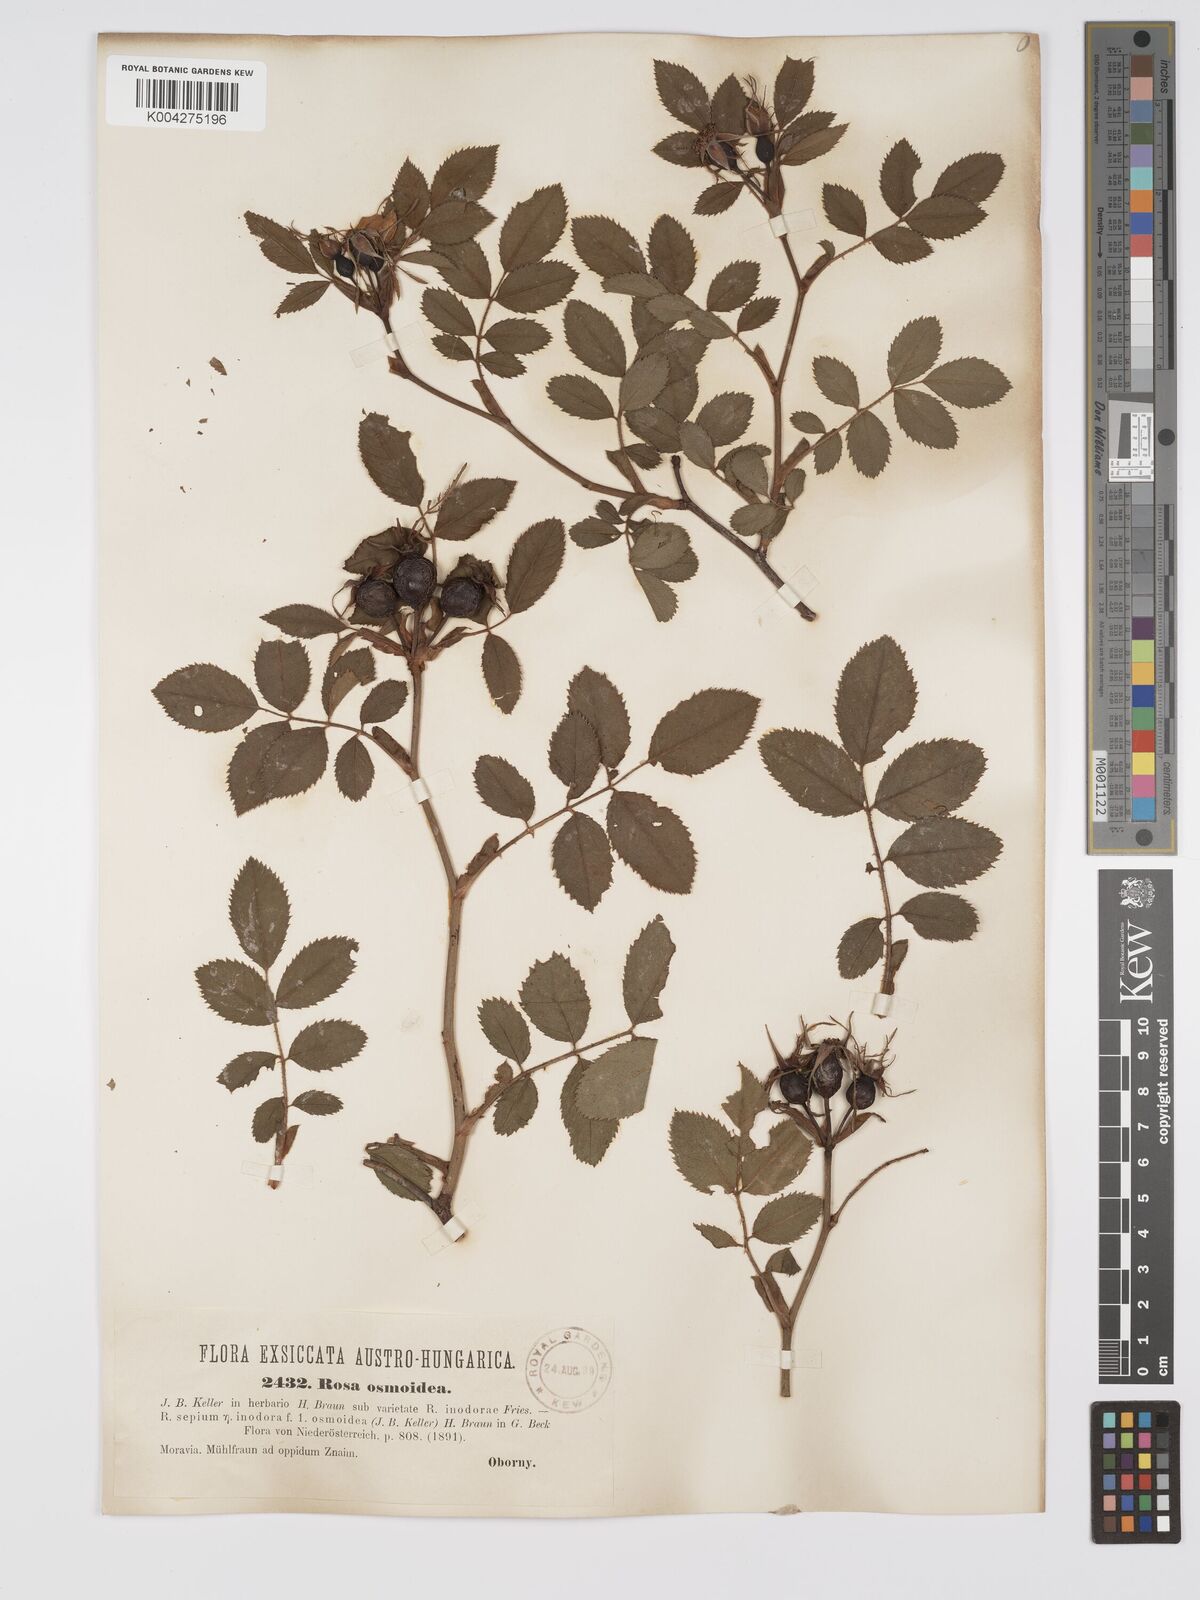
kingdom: Plantae
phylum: Tracheophyta
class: Magnoliopsida
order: Rosales
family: Rosaceae
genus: Rosa
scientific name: Rosa
